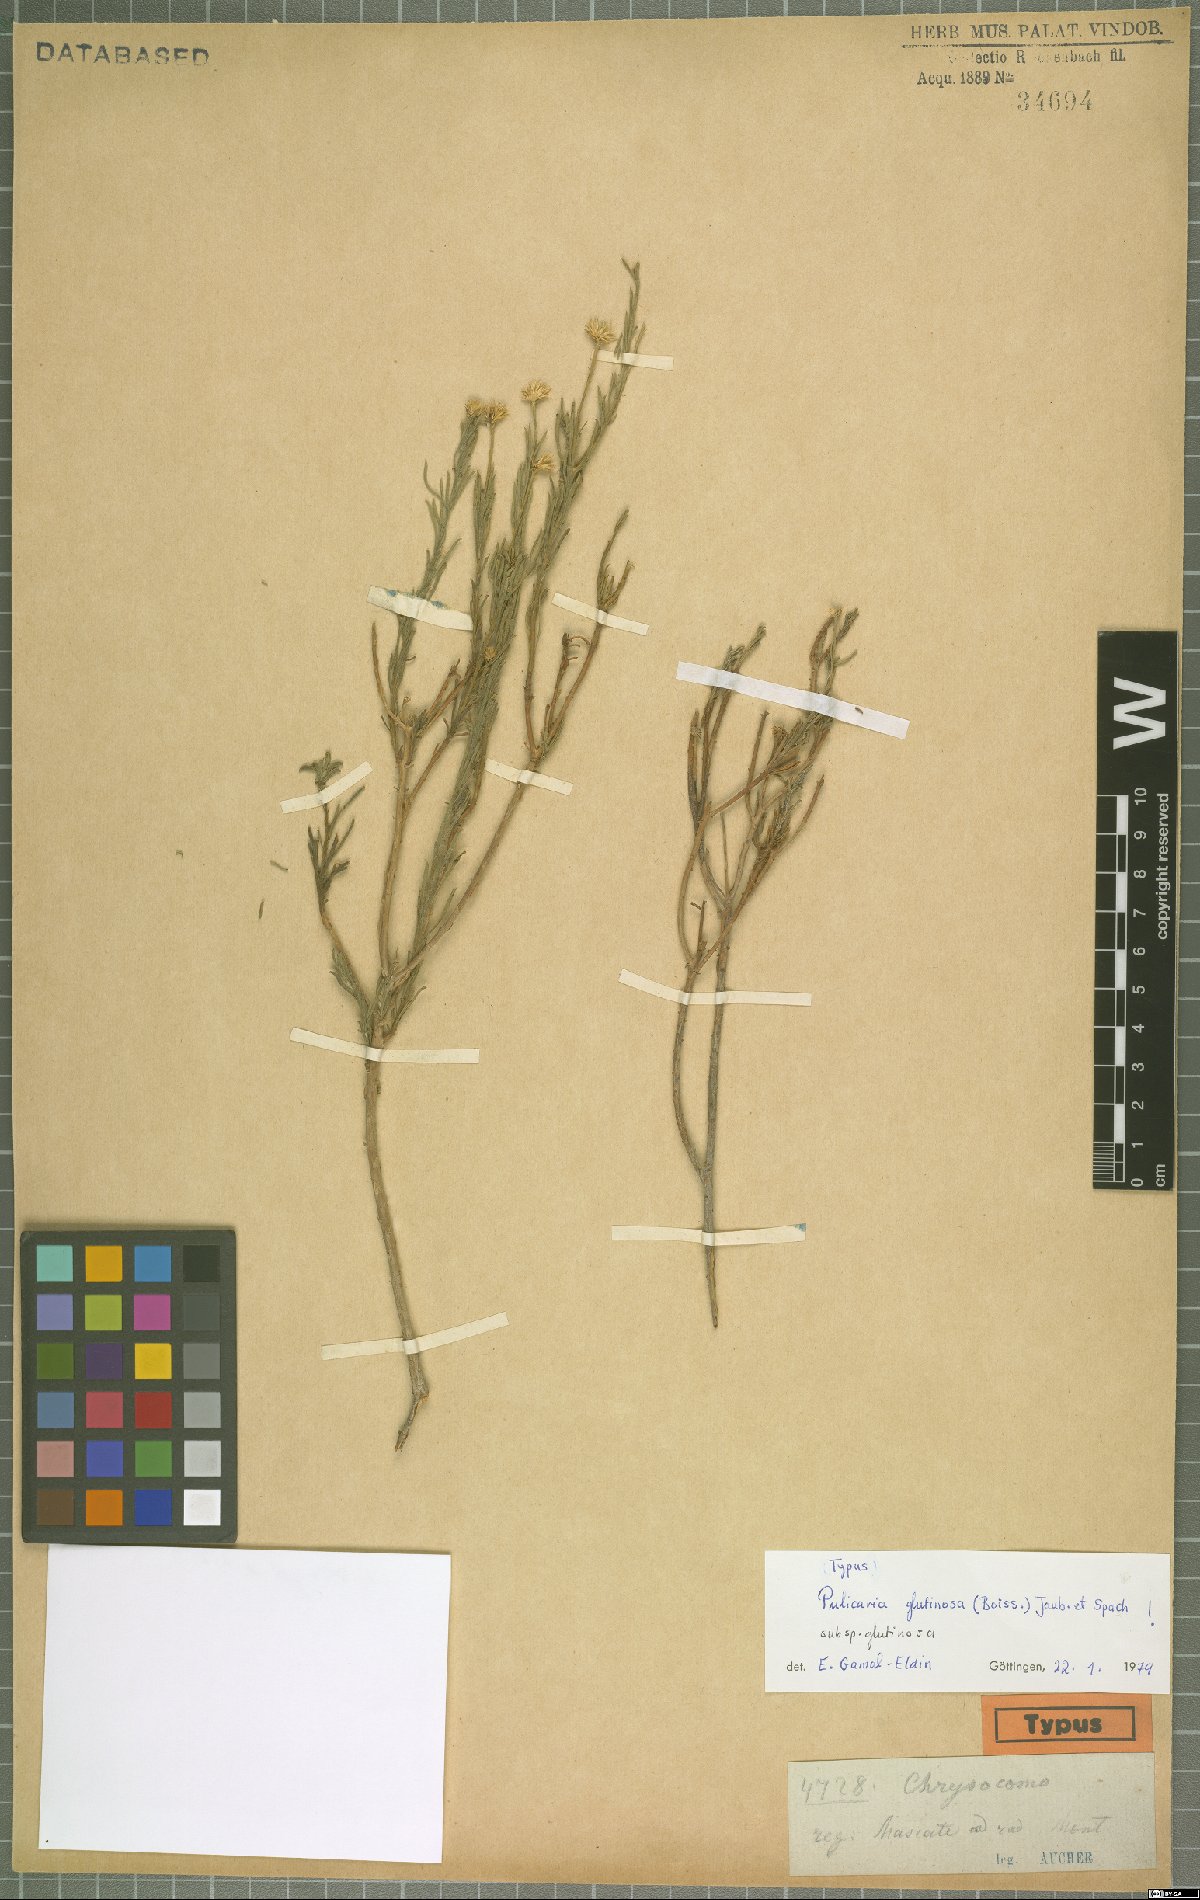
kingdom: Plantae
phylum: Tracheophyta
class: Magnoliopsida
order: Asterales
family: Asteraceae
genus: Pulicaria
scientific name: Pulicaria glutinosa
